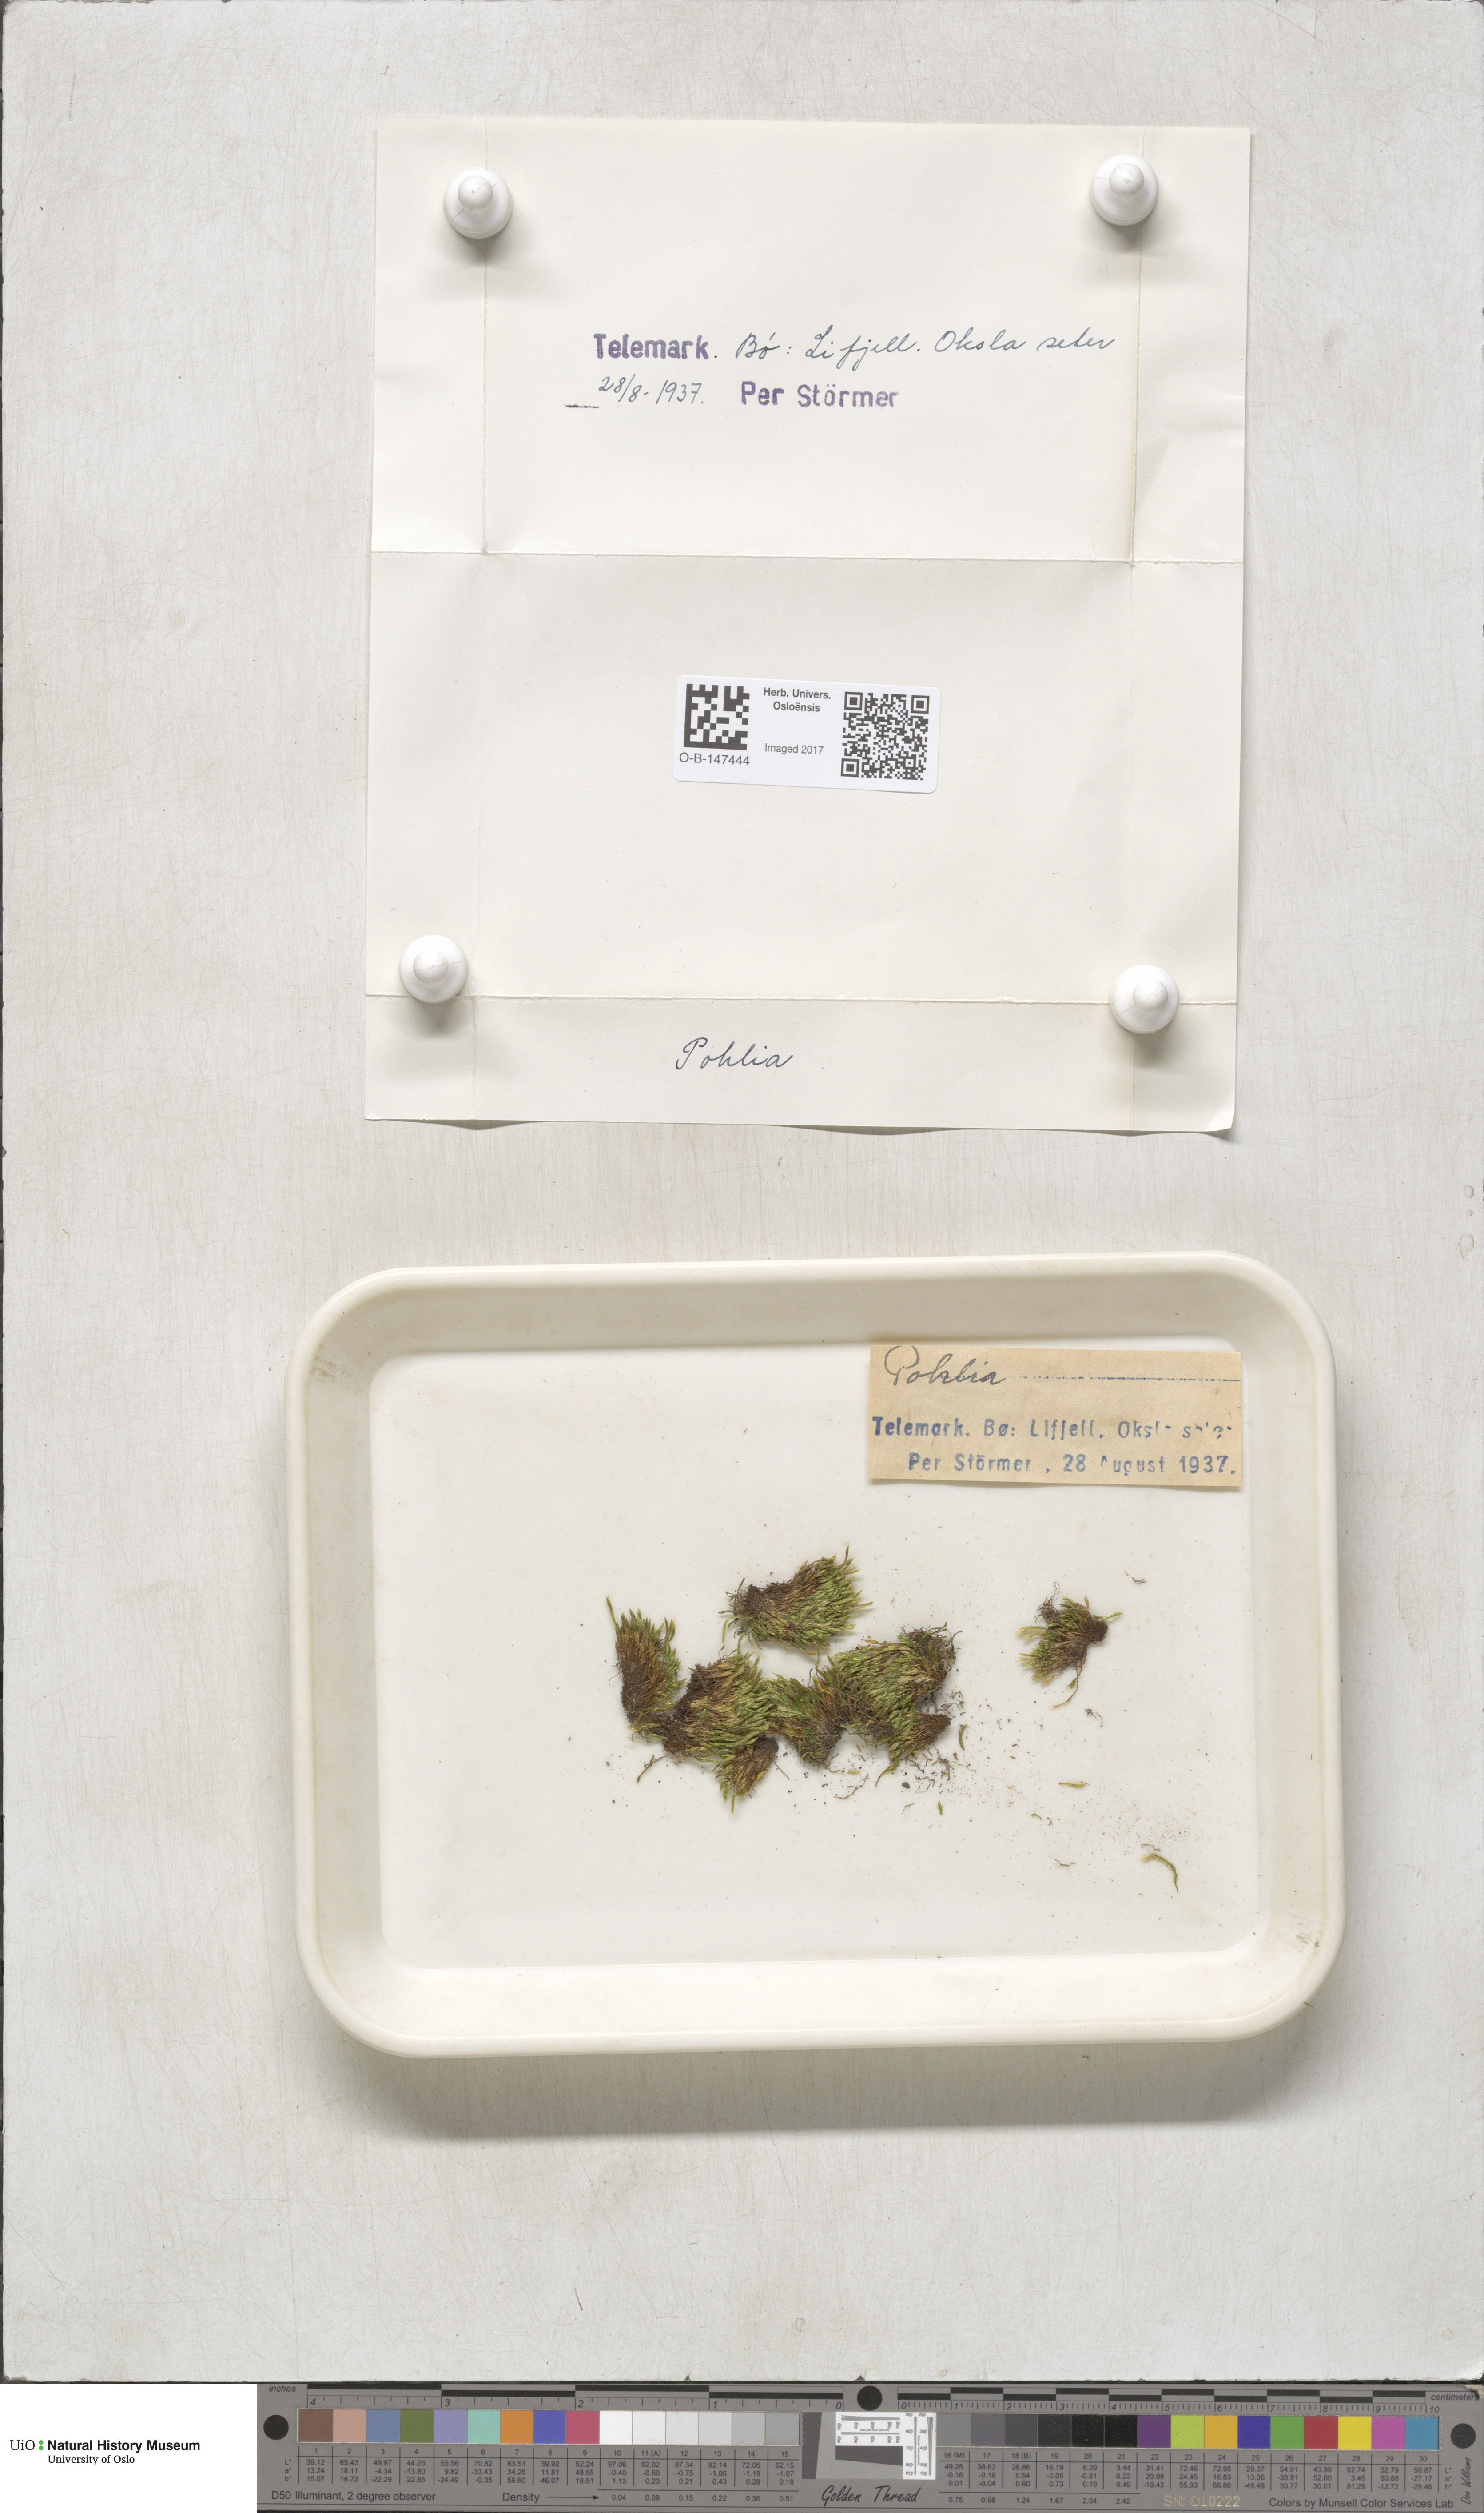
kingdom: Plantae
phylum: Bryophyta
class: Bryopsida
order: Bryales
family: Mniaceae
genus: Pohlia
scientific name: Pohlia
